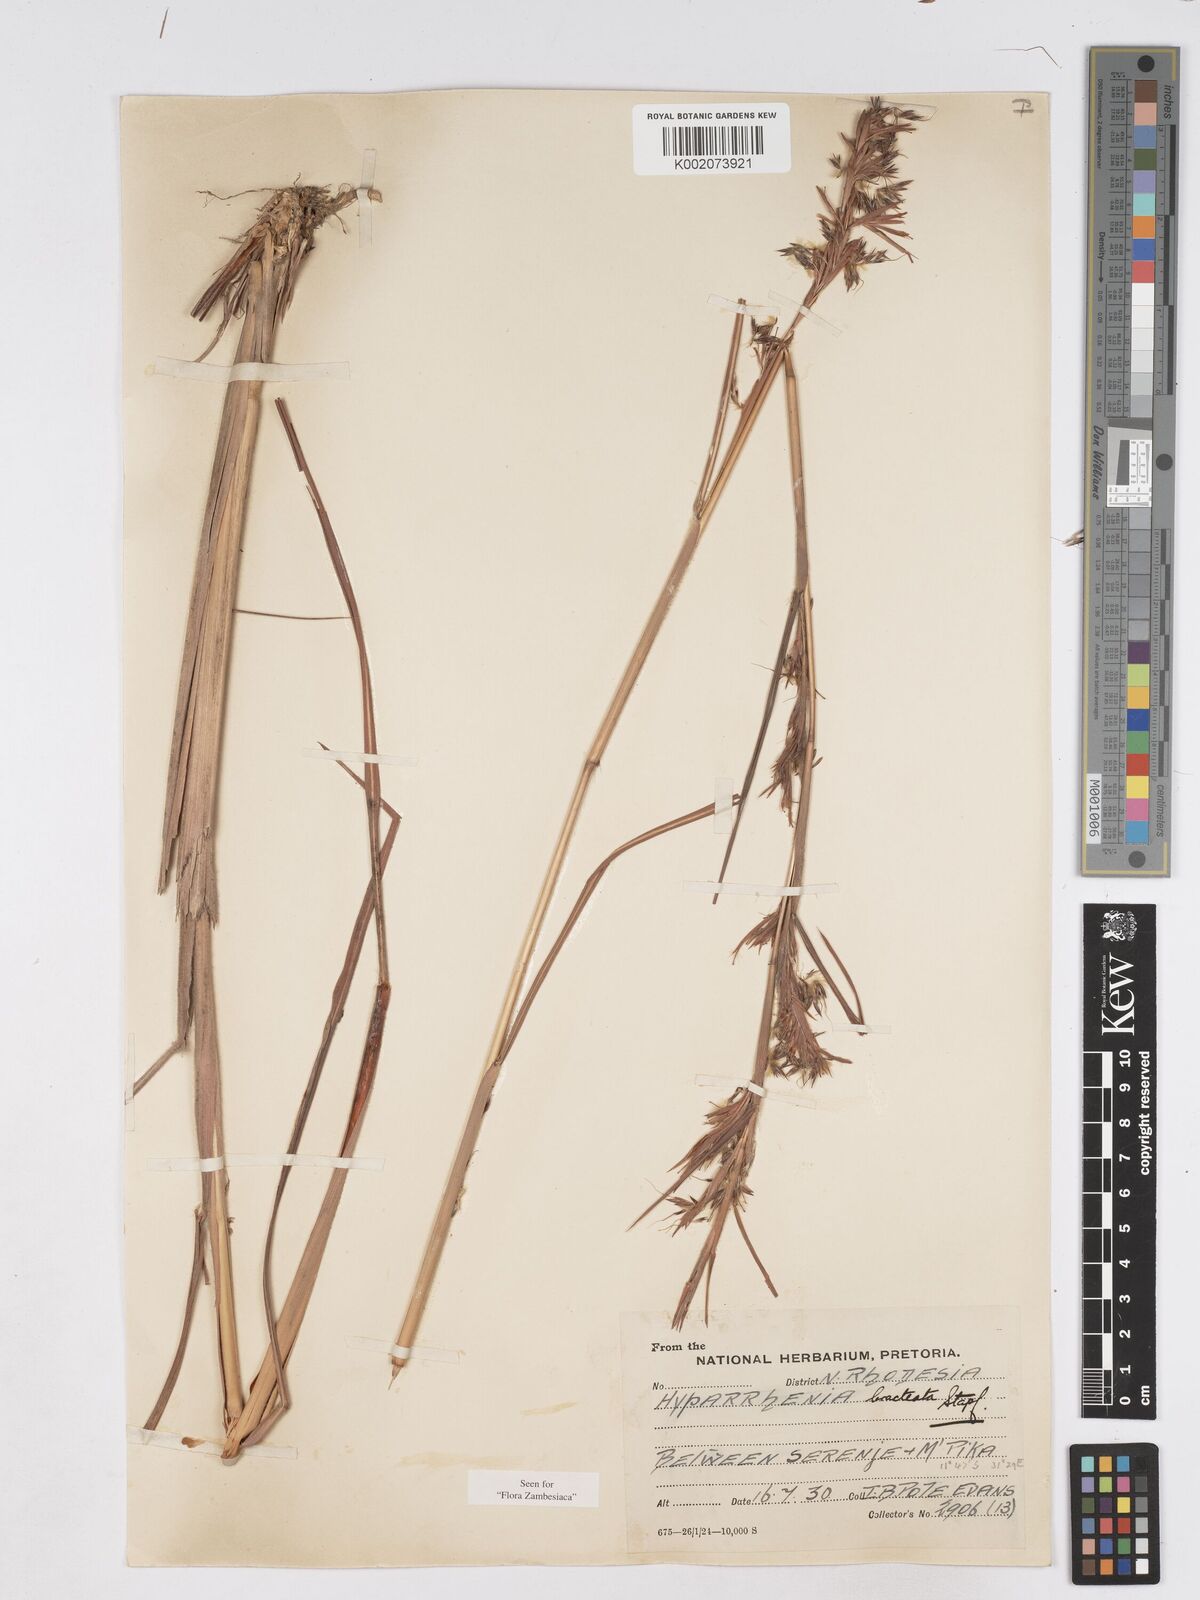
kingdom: Plantae
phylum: Tracheophyta
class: Liliopsida
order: Poales
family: Poaceae
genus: Hyparrhenia
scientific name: Hyparrhenia bracteata
